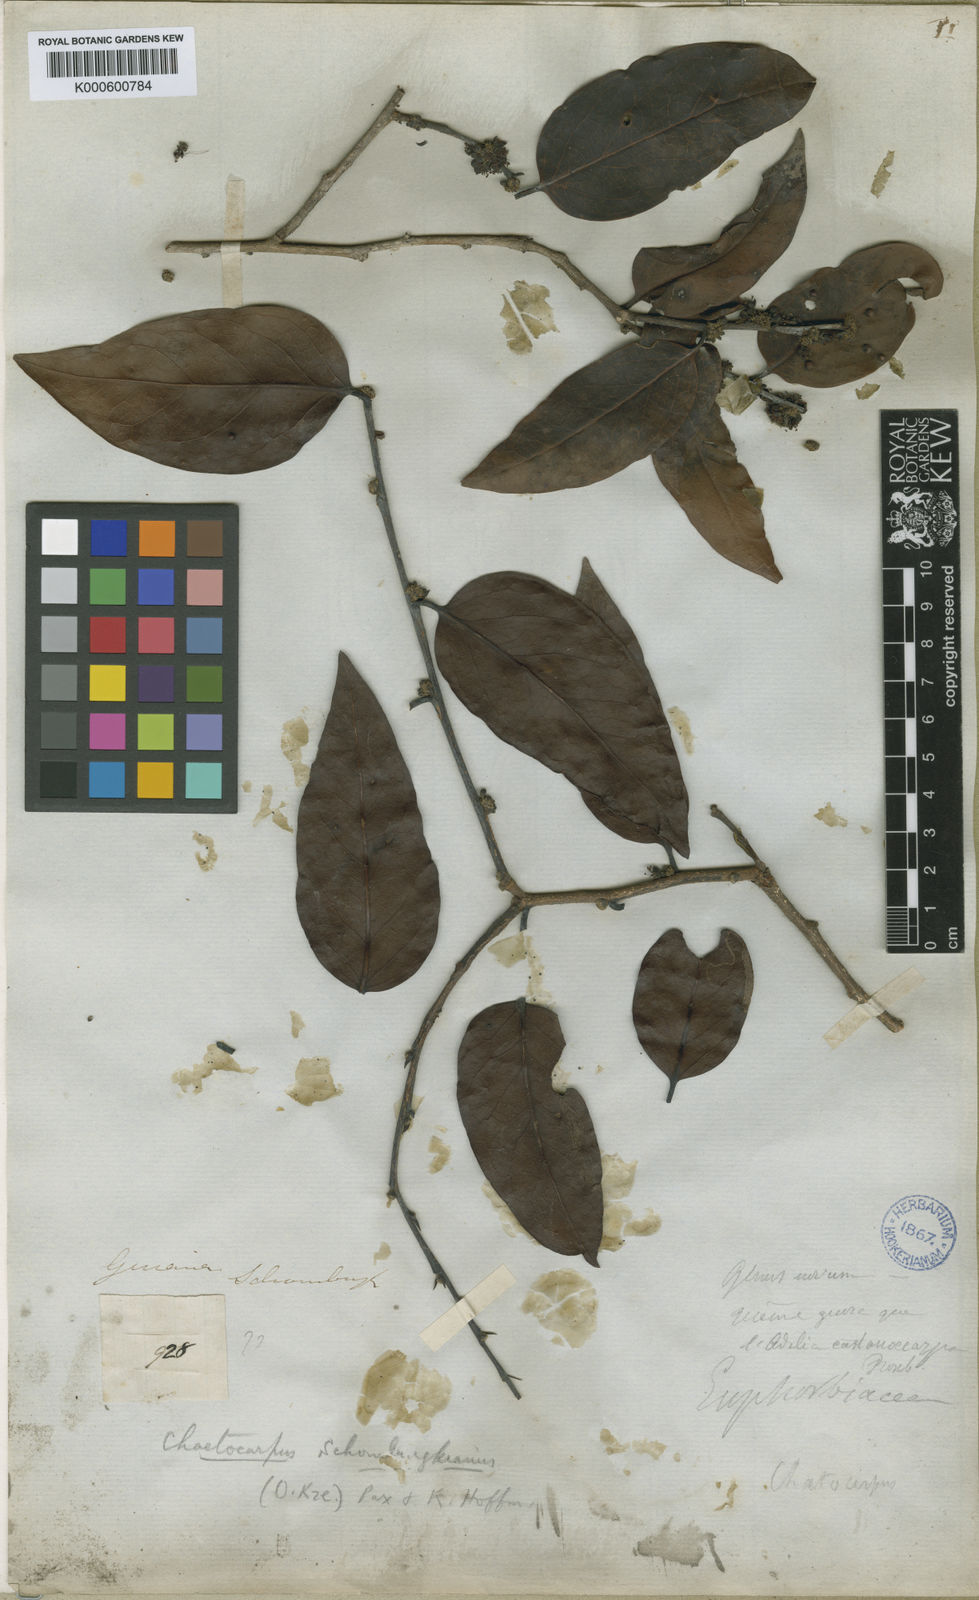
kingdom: Plantae
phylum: Tracheophyta
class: Magnoliopsida
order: Malpighiales
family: Peraceae
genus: Chaetocarpus
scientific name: Chaetocarpus schomburgkianus
